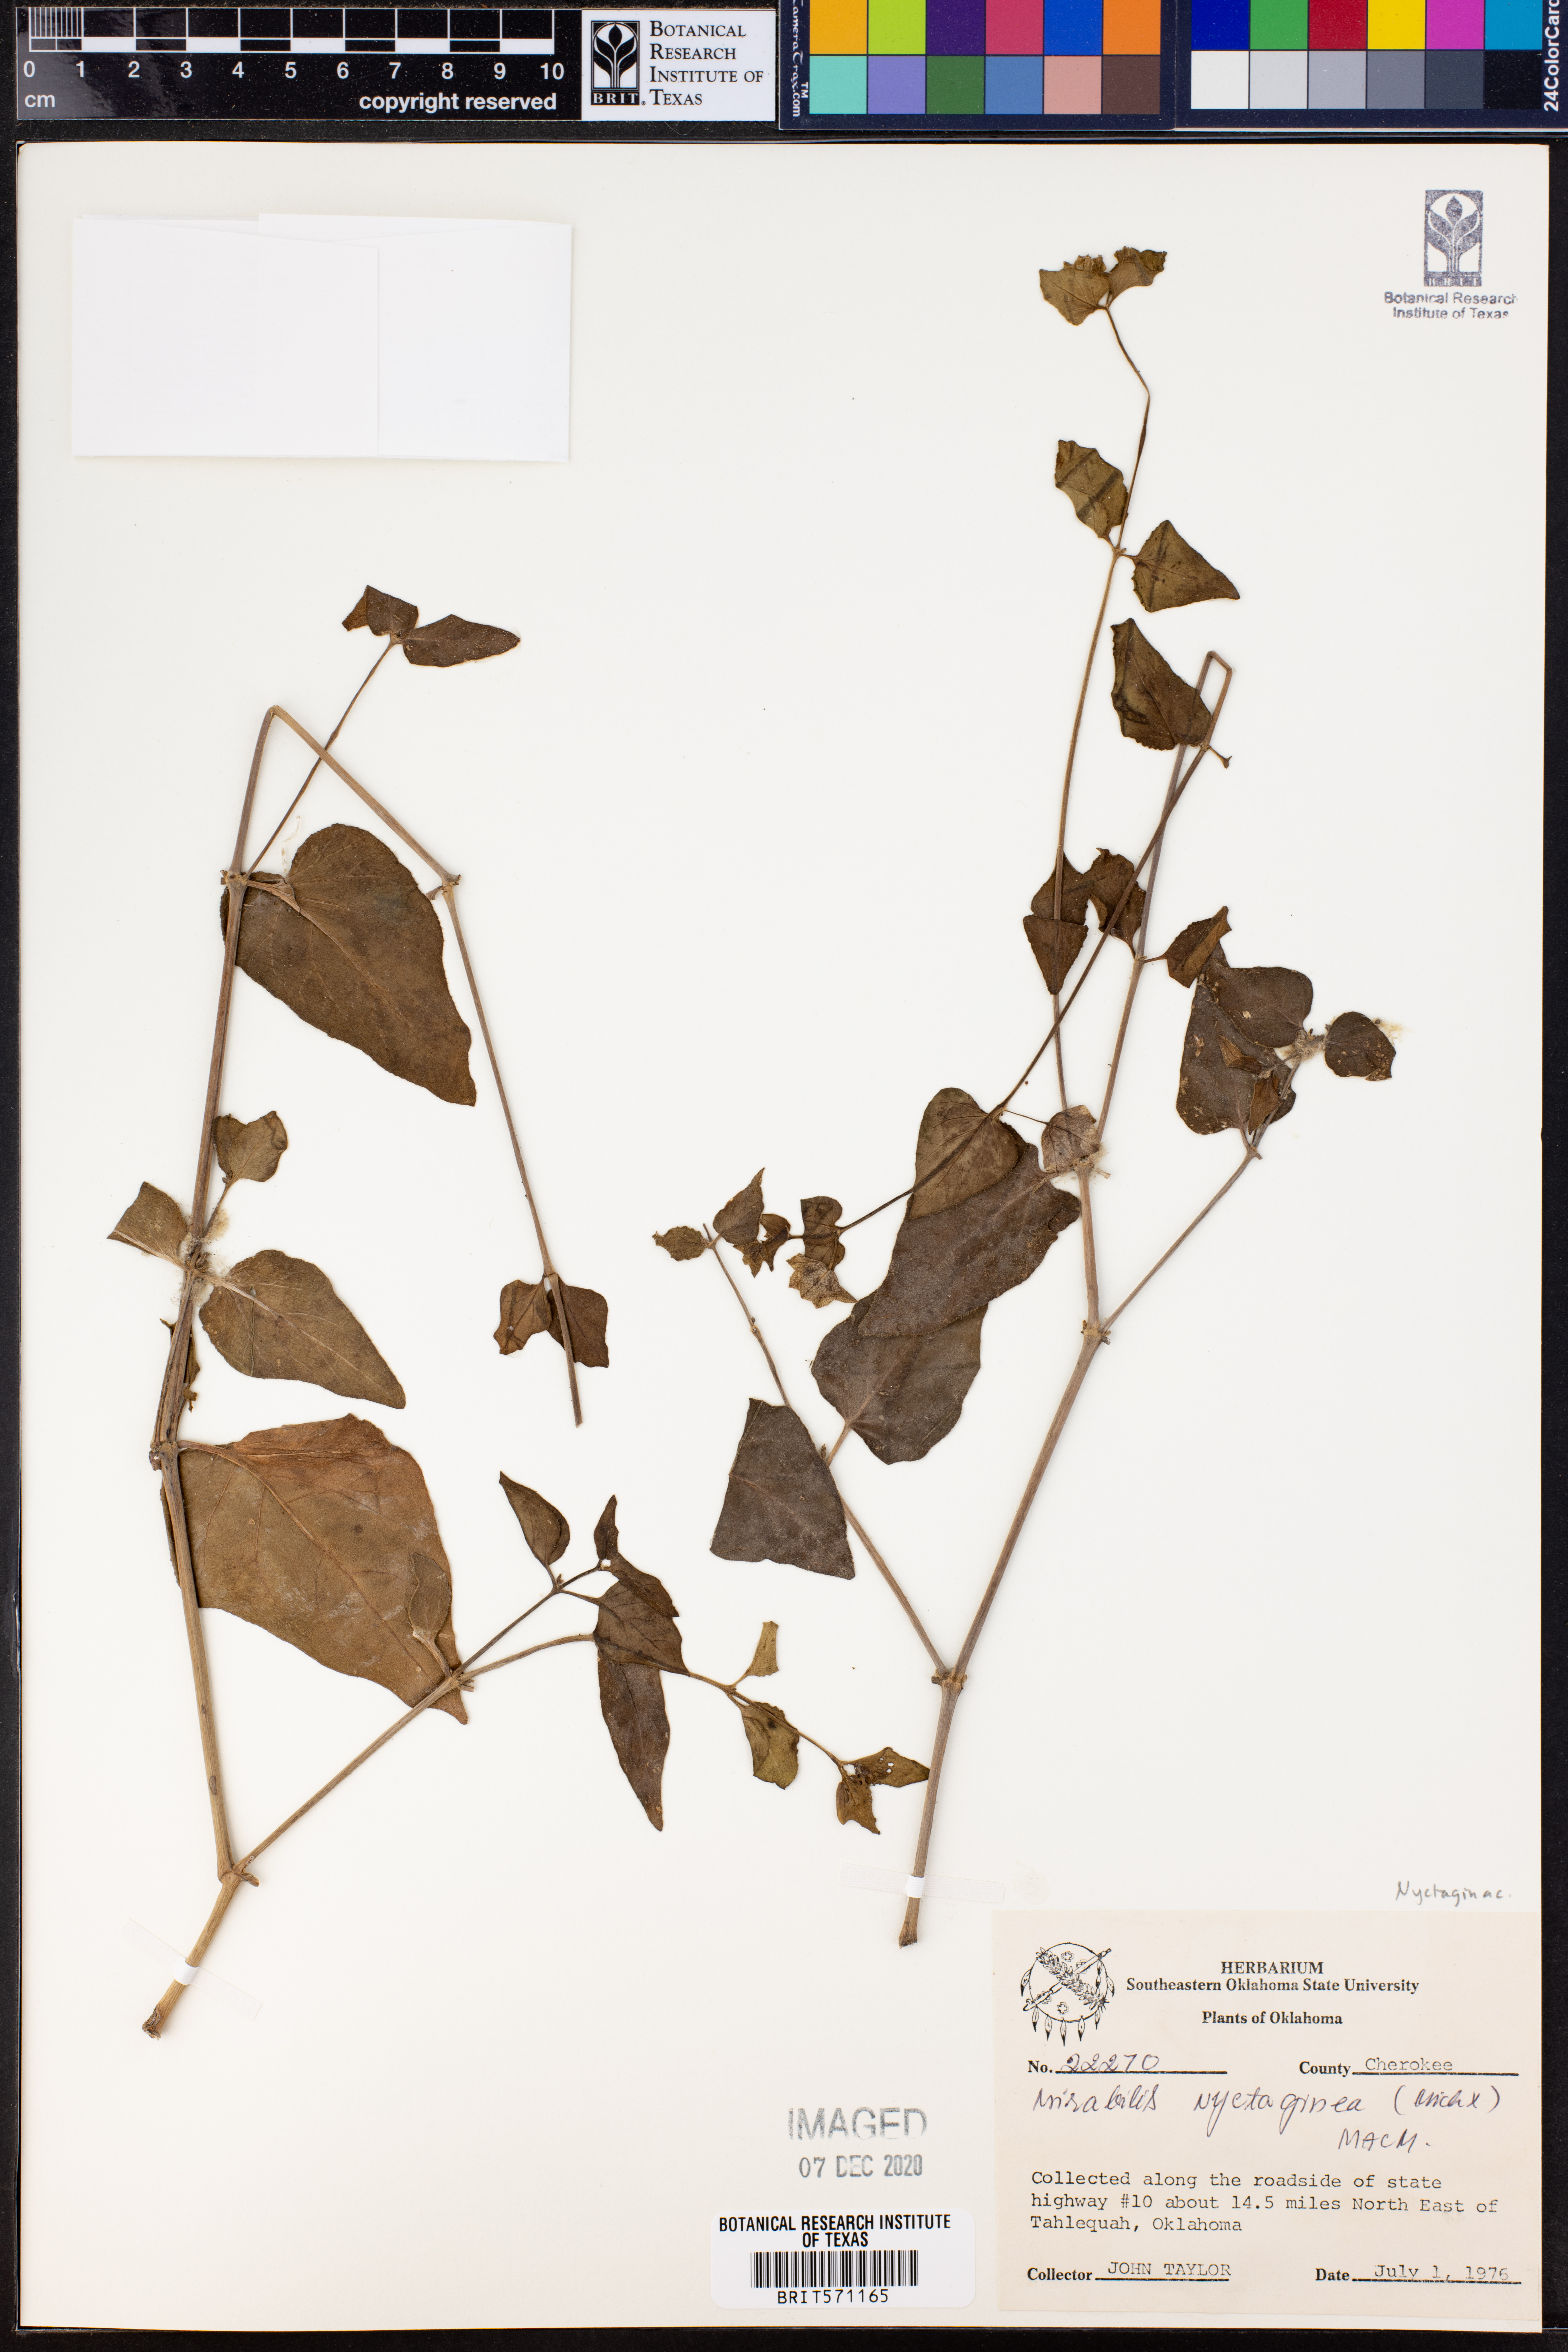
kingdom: Plantae
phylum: Tracheophyta
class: Magnoliopsida
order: Caryophyllales
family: Nyctaginaceae
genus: Mirabilis
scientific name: Mirabilis nyctaginea
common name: Umbrella wort
